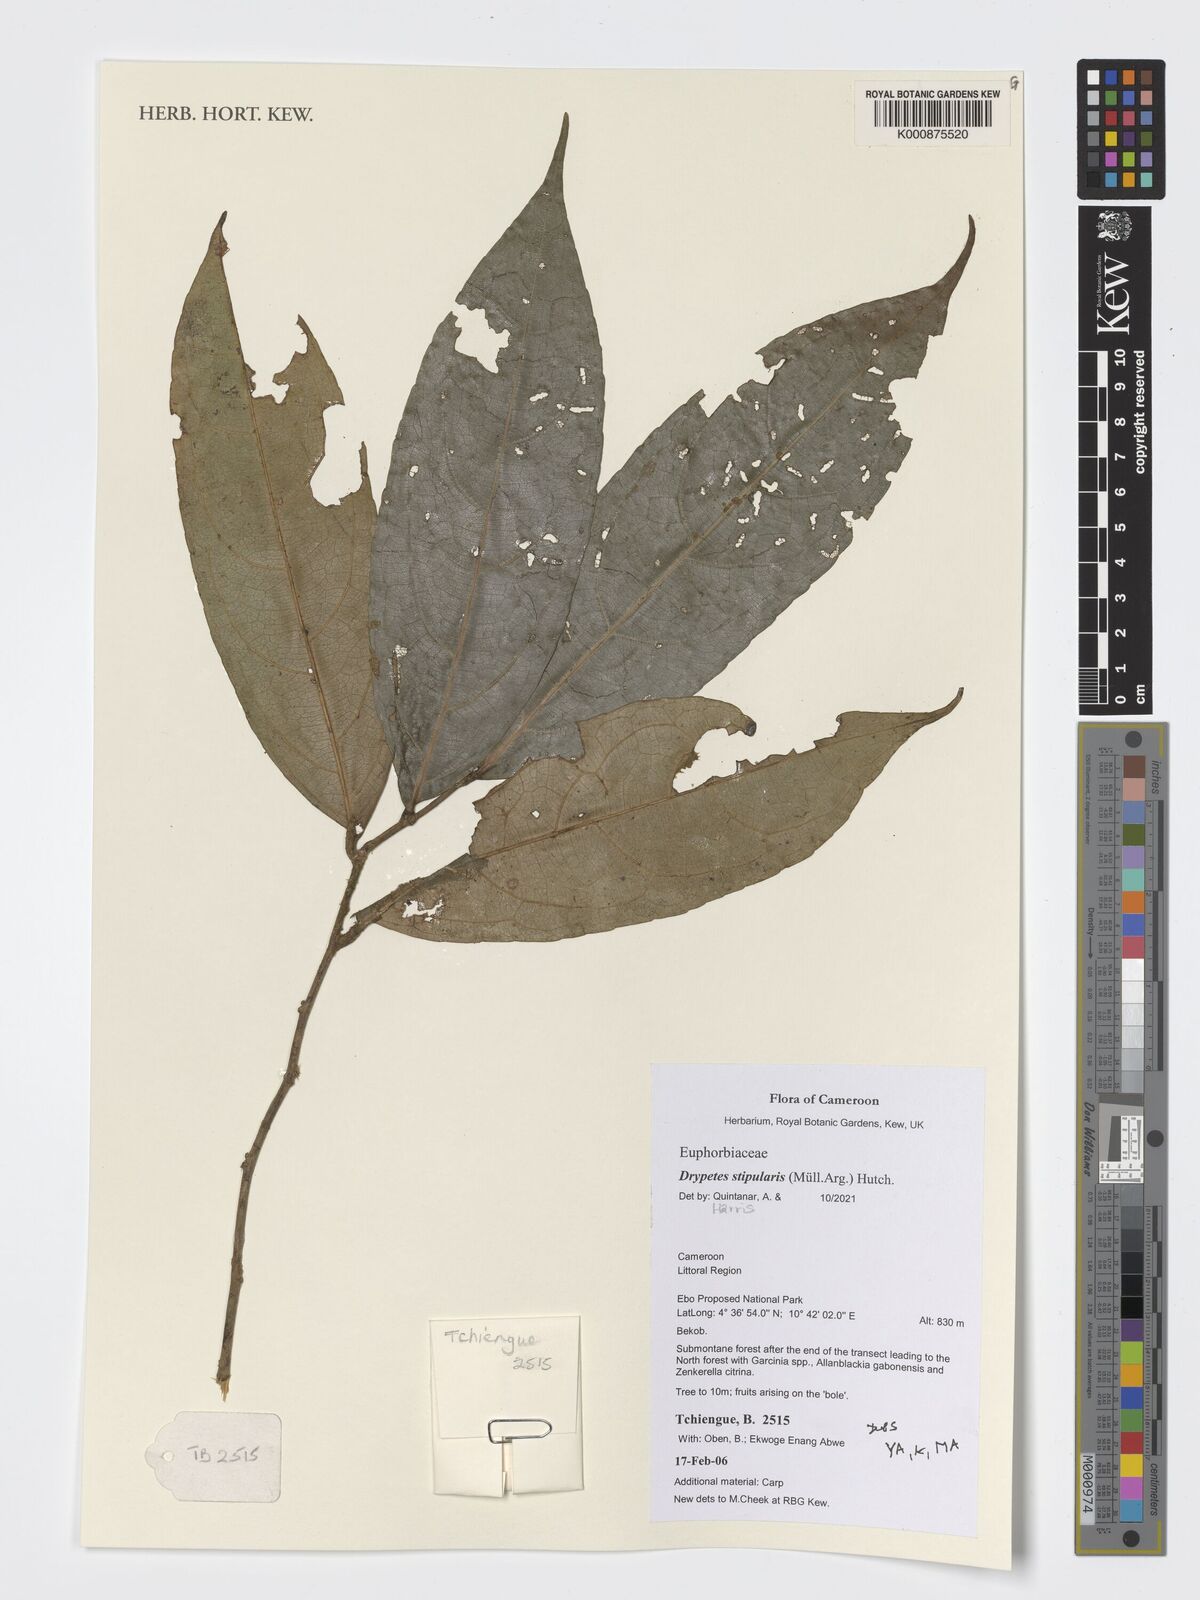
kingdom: Plantae
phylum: Tracheophyta
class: Magnoliopsida
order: Malpighiales
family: Putranjivaceae
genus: Drypetes
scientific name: Drypetes stipularis
